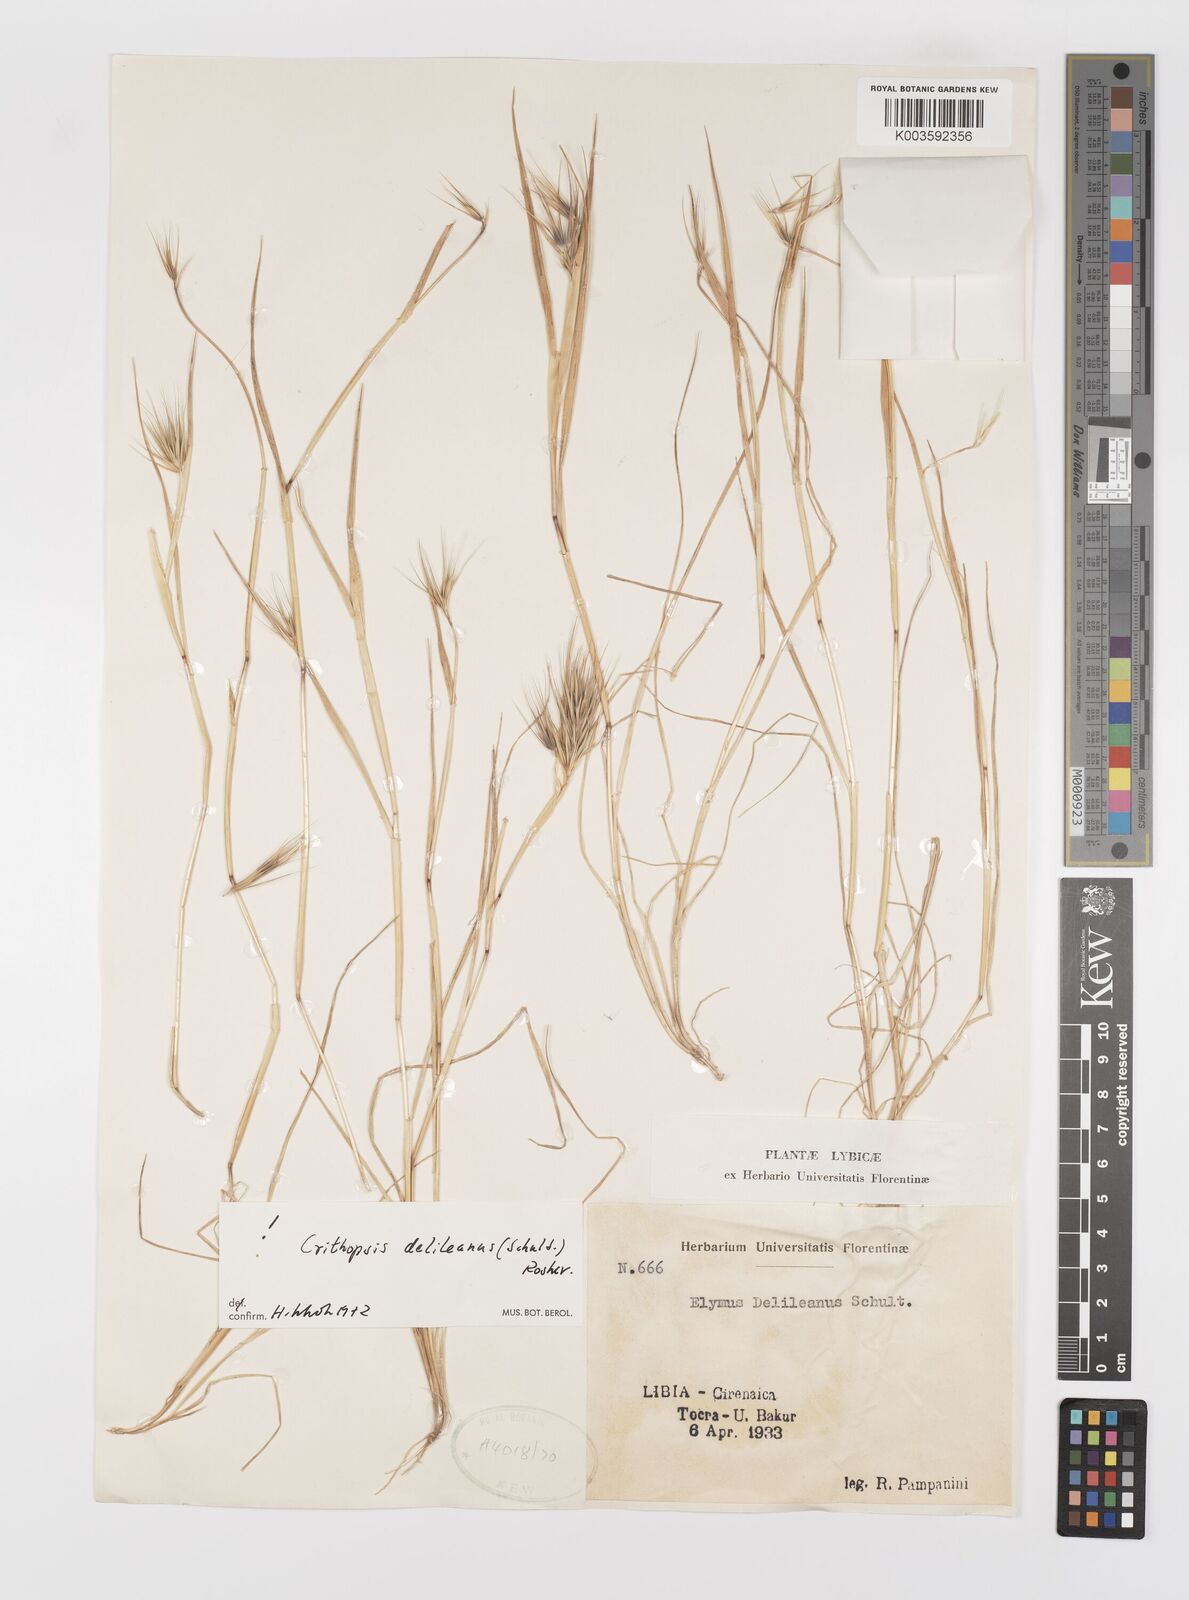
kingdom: Plantae
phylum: Tracheophyta
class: Liliopsida
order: Poales
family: Poaceae
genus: Crithopsis
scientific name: Crithopsis delileana
